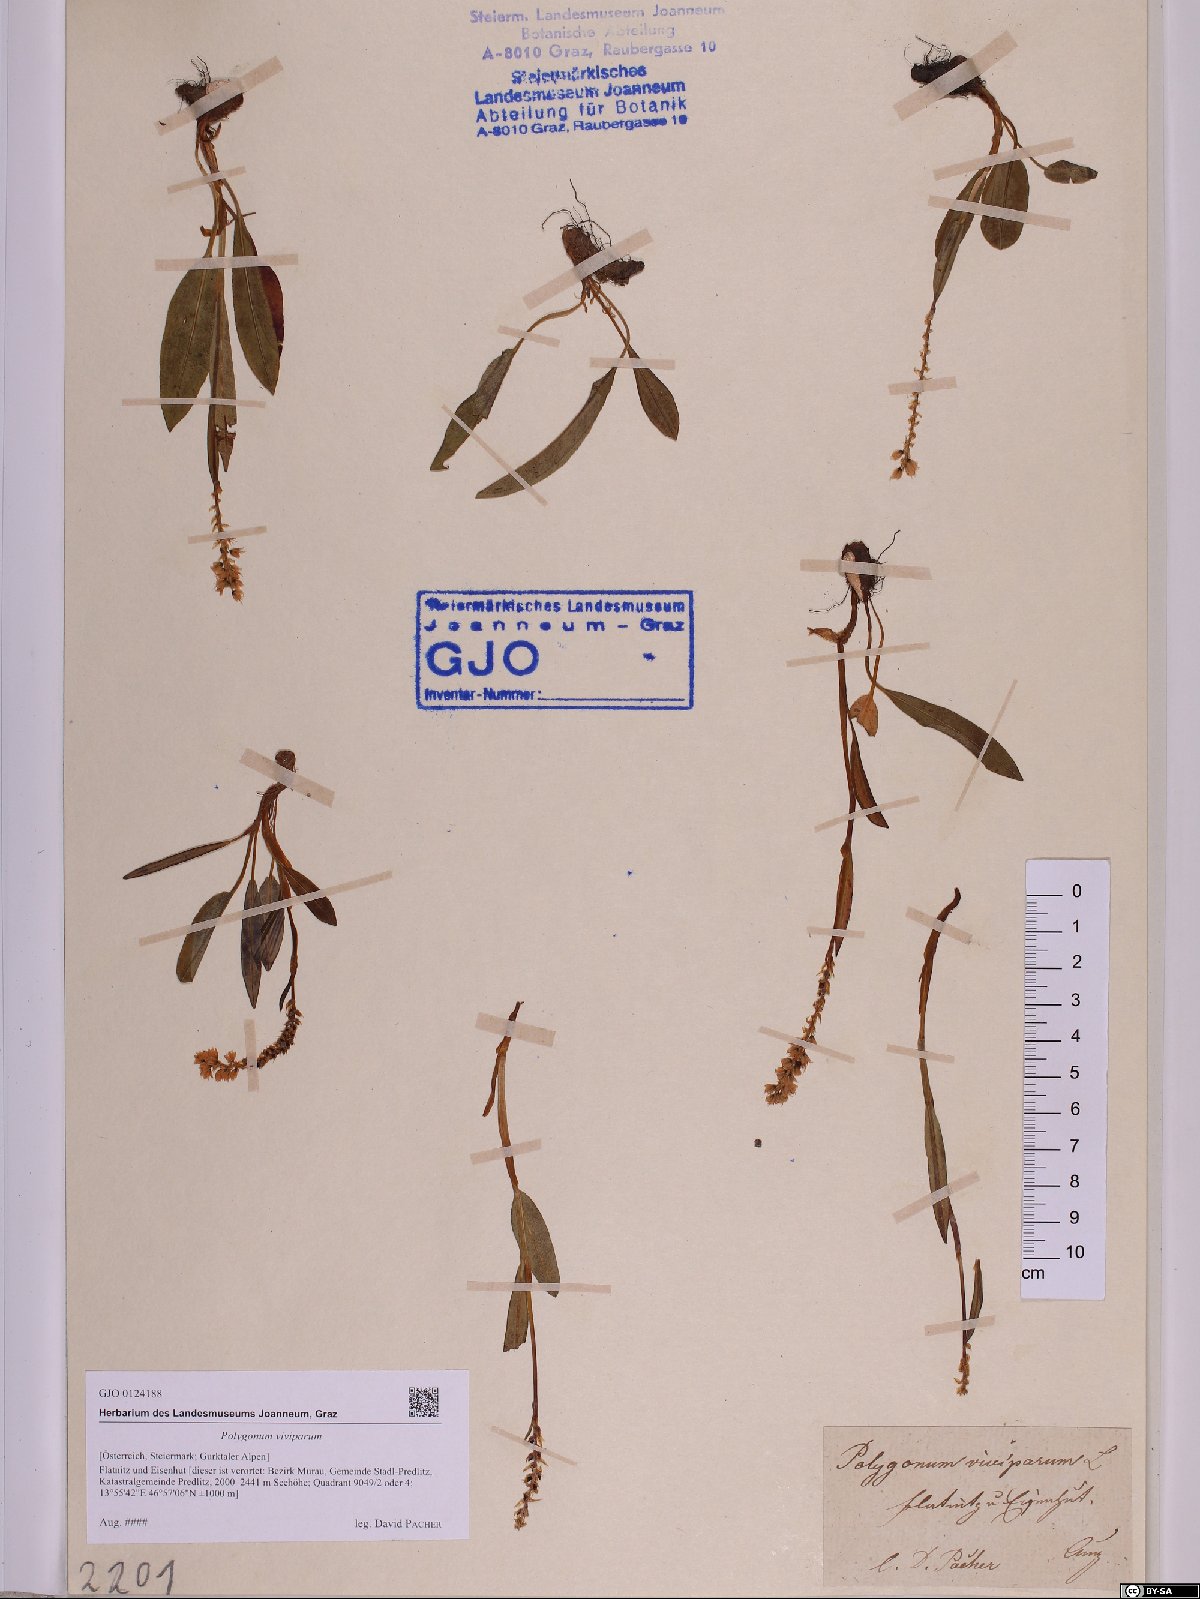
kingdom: Plantae
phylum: Tracheophyta
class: Magnoliopsida
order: Caryophyllales
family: Polygonaceae
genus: Bistorta
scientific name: Bistorta vivipara
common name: Alpine bistort
